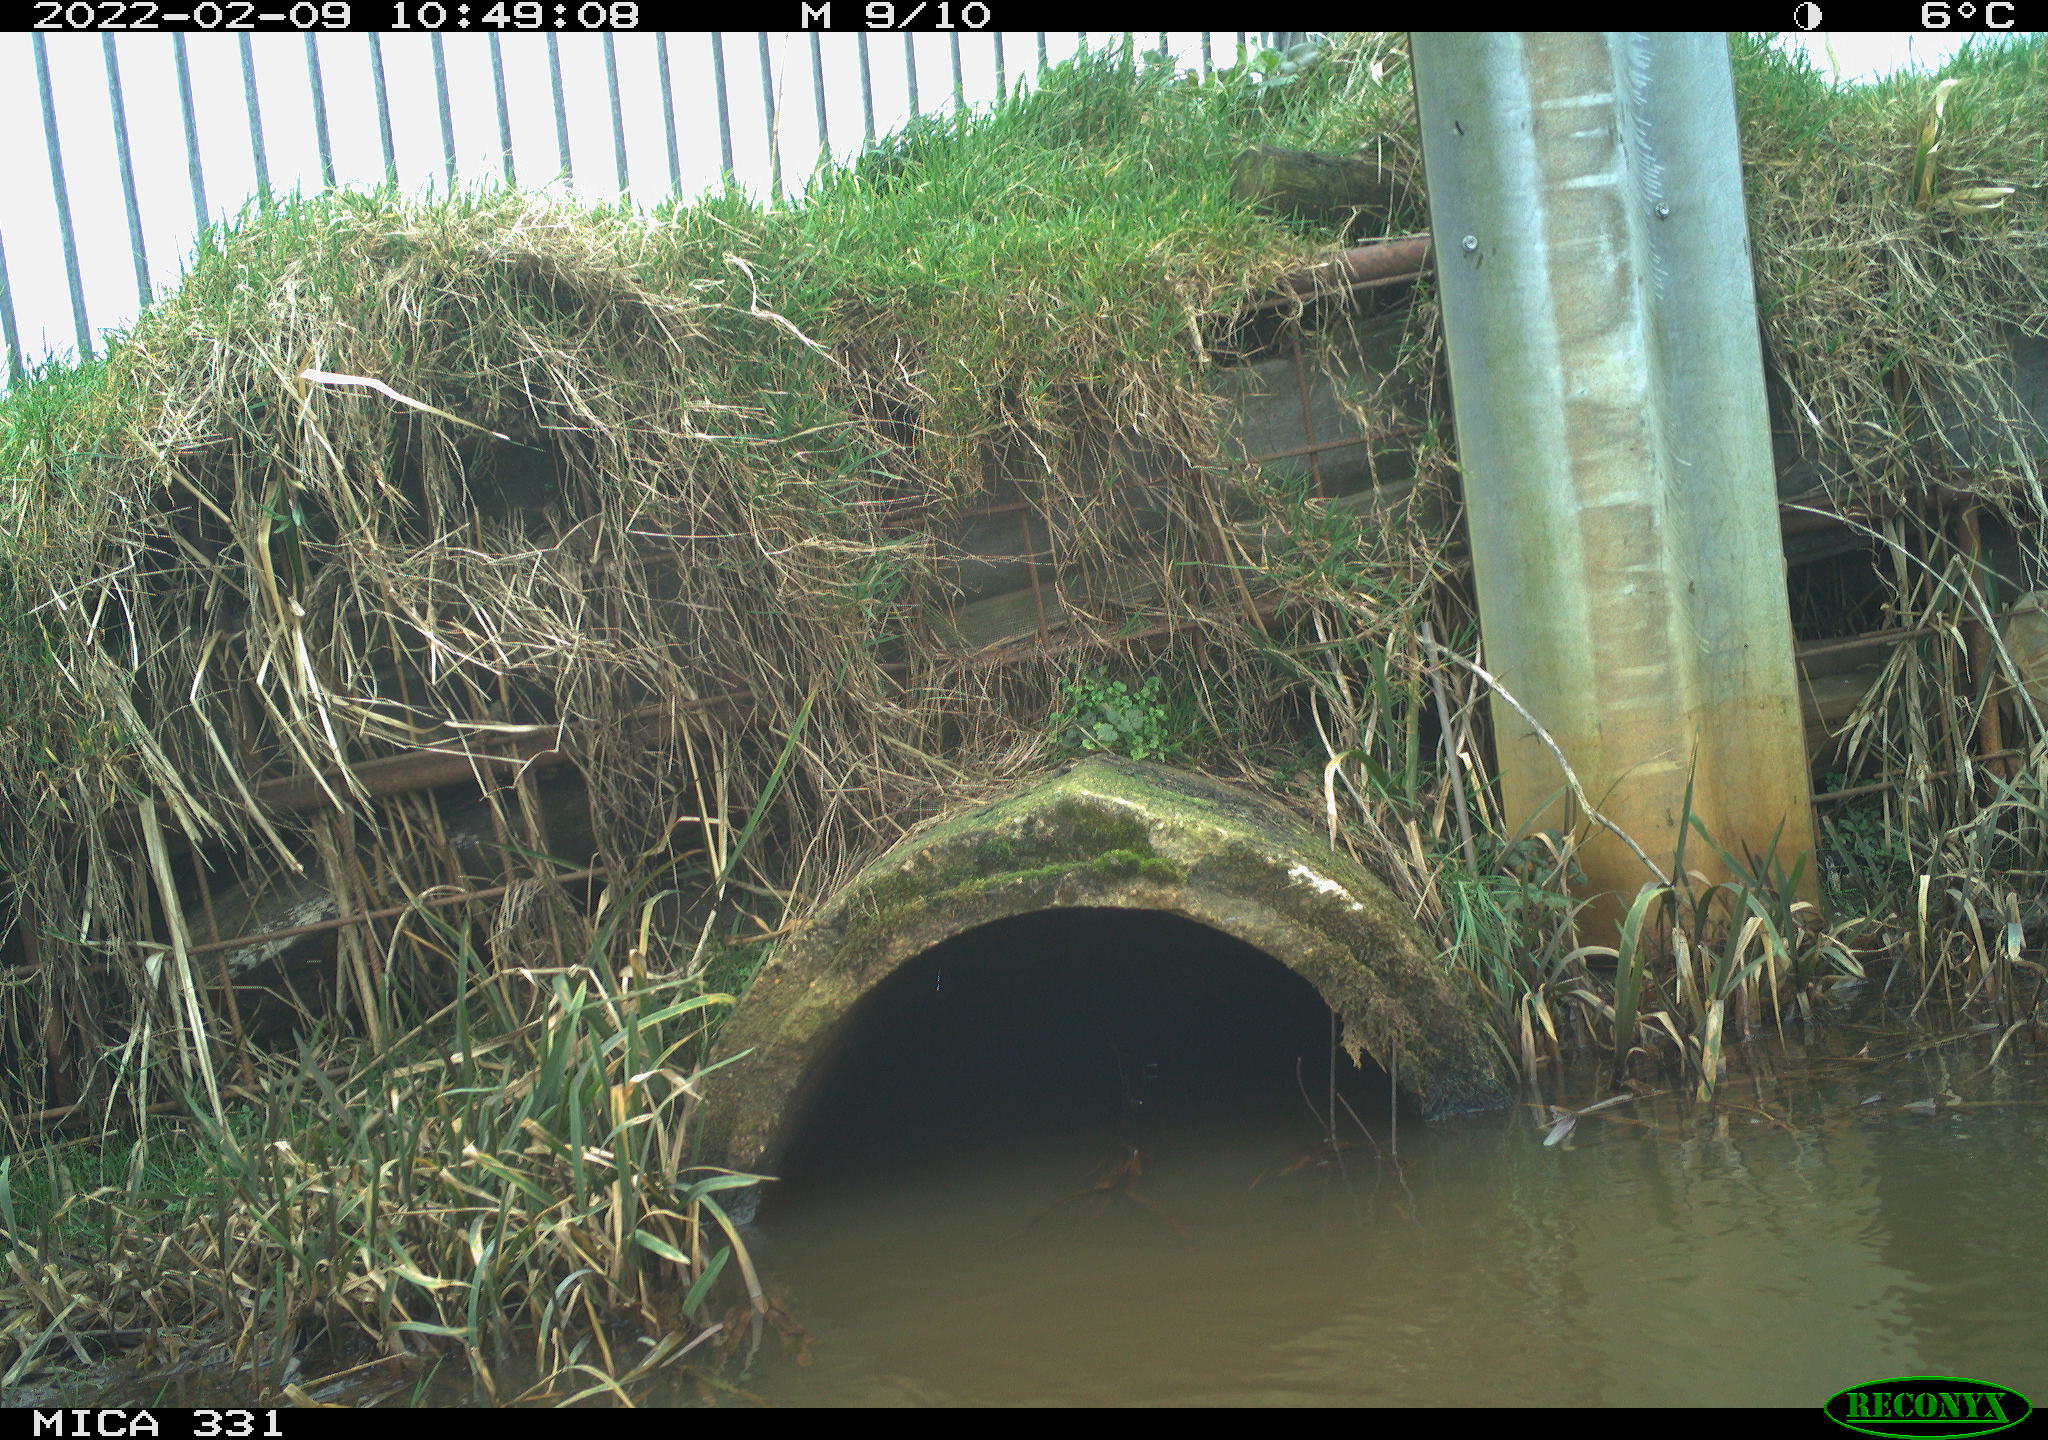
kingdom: Animalia
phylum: Chordata
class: Aves
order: Pelecaniformes
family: Ardeidae
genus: Ardea
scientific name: Ardea alba
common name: Great egret
